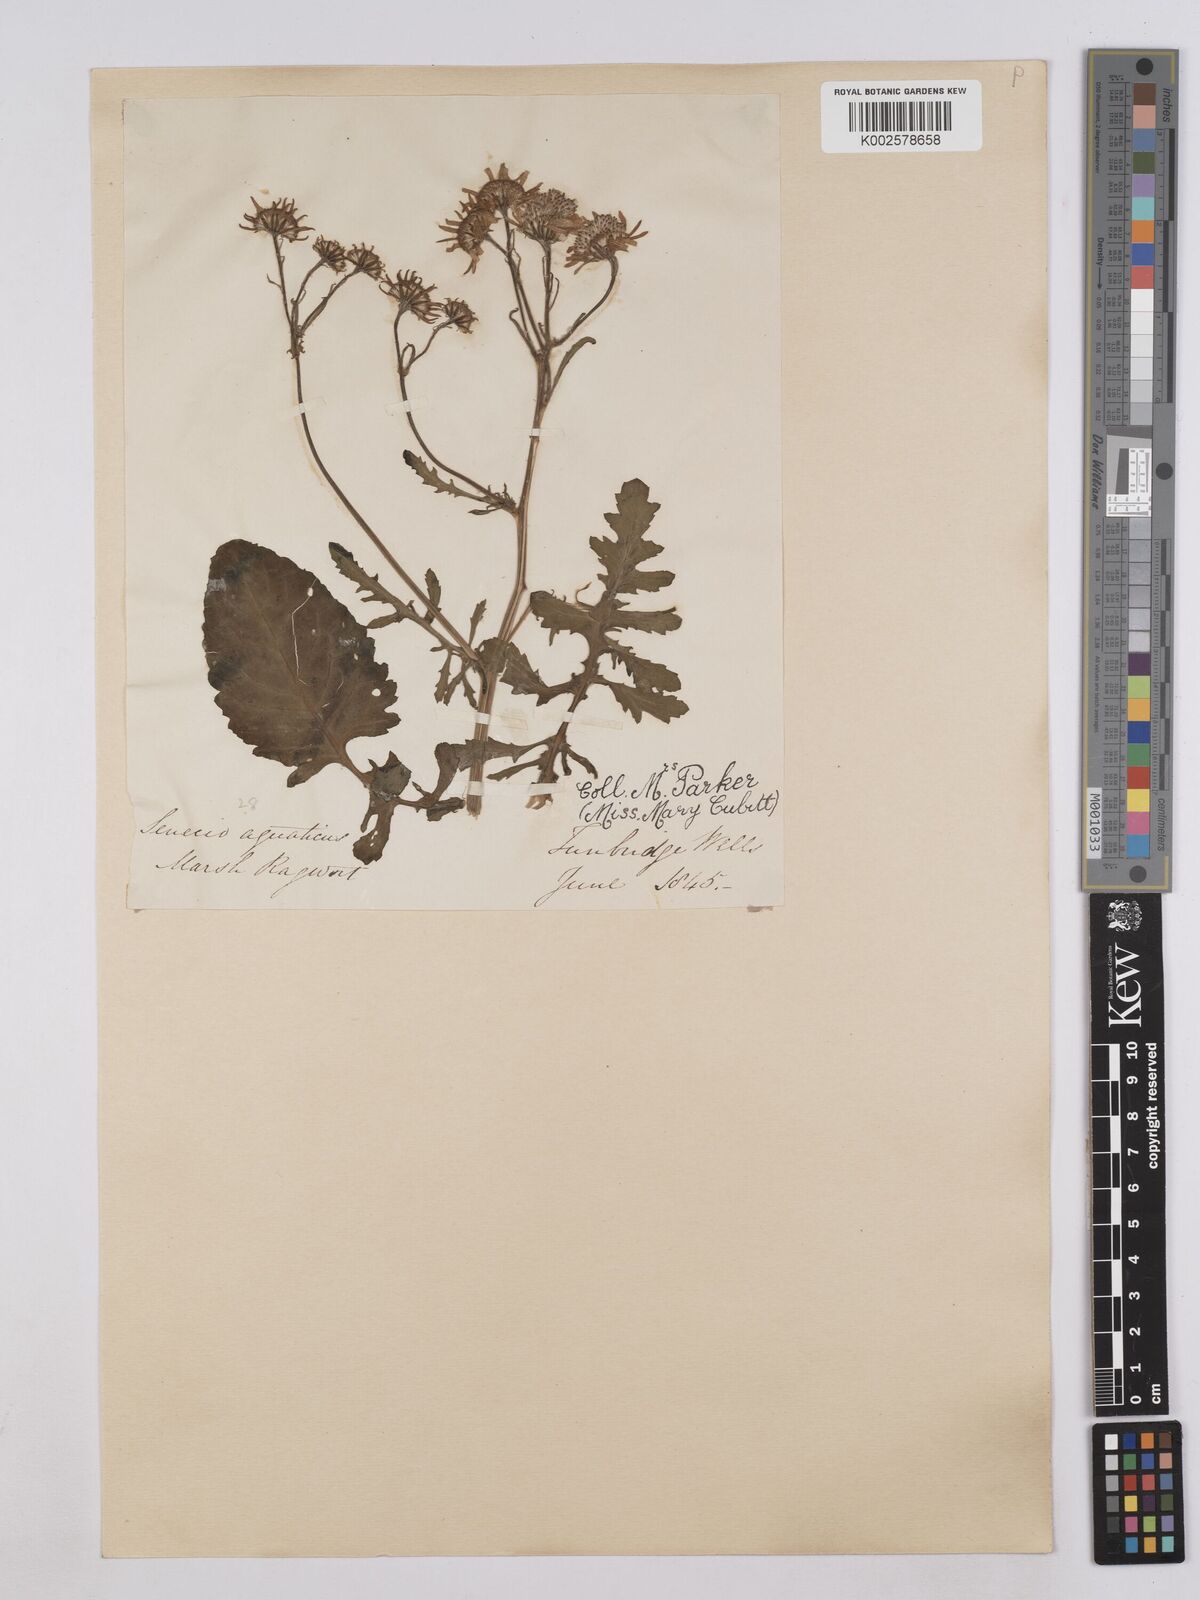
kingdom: Plantae
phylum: Tracheophyta
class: Magnoliopsida
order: Asterales
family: Asteraceae
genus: Jacobaea
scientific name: Jacobaea aquatica
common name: Water ragwort
